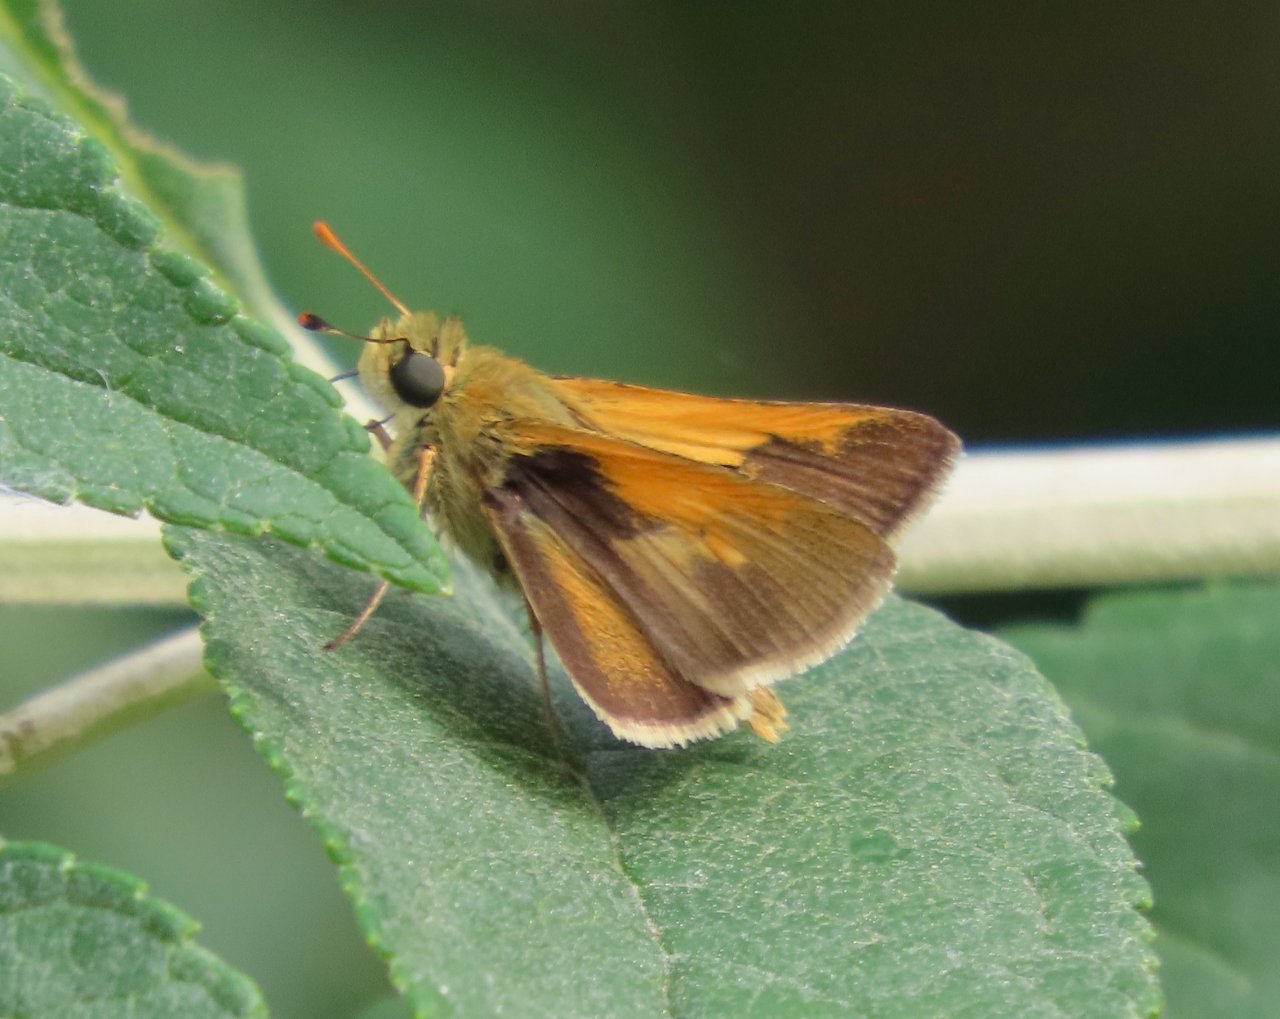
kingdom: Animalia
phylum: Arthropoda
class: Insecta
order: Lepidoptera
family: Hesperiidae
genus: Polites
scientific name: Polites themistocles
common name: Tawny-edged Skipper
